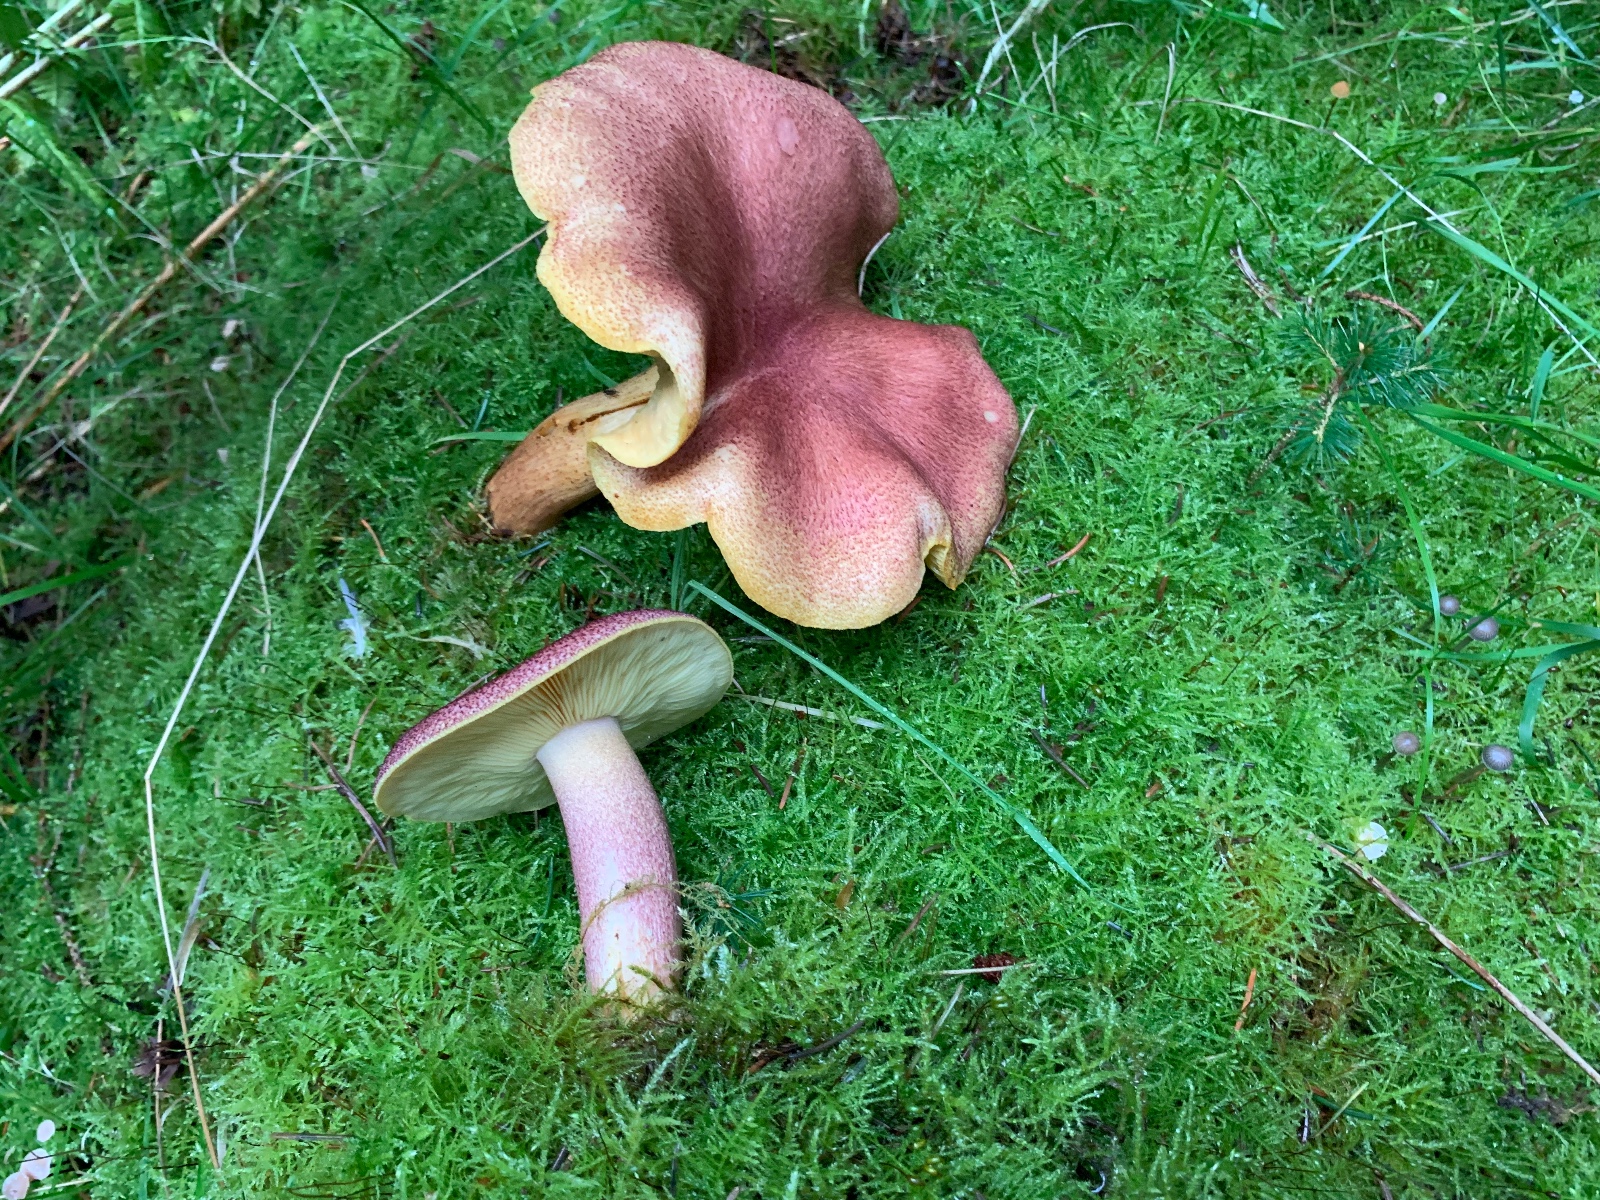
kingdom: Fungi
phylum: Basidiomycota
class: Agaricomycetes
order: Agaricales
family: Tricholomataceae
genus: Tricholomopsis
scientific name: Tricholomopsis rutilans
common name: purpur-væbnerhat
